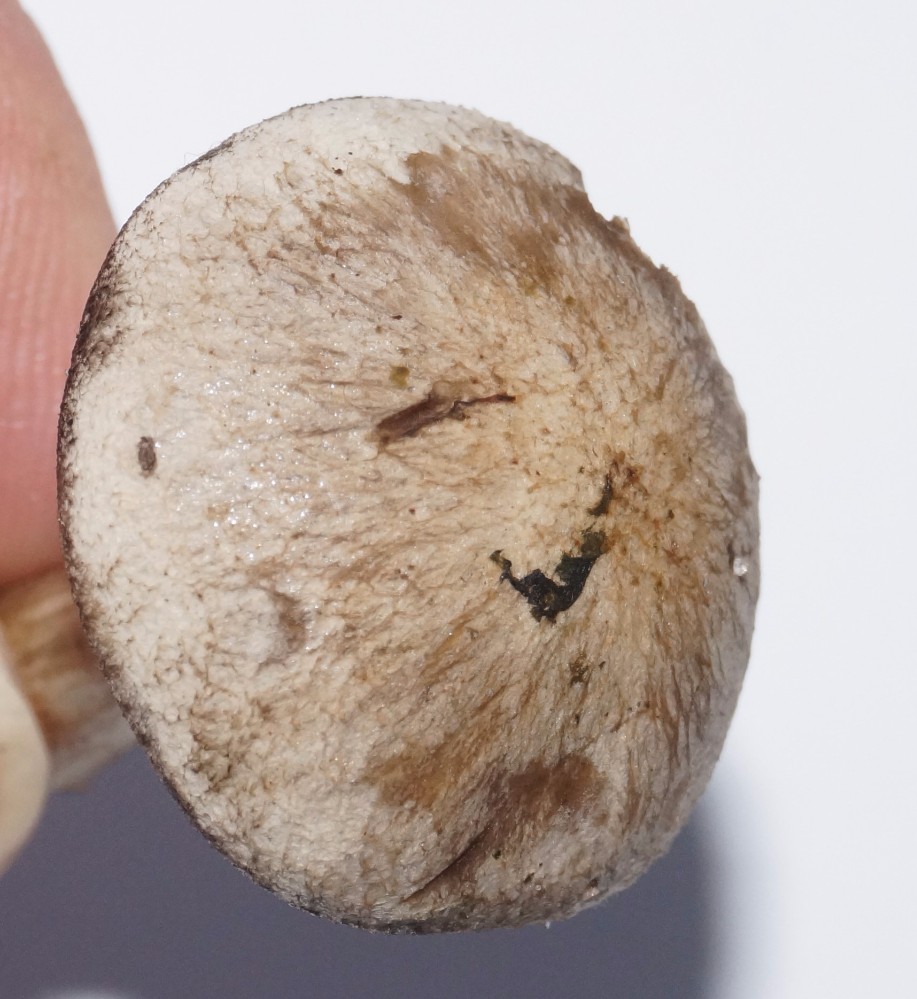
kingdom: Fungi
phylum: Basidiomycota
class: Agaricomycetes
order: Agaricales
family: Lyophyllaceae
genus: Lyophyllum
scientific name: Lyophyllum
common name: gråblad
